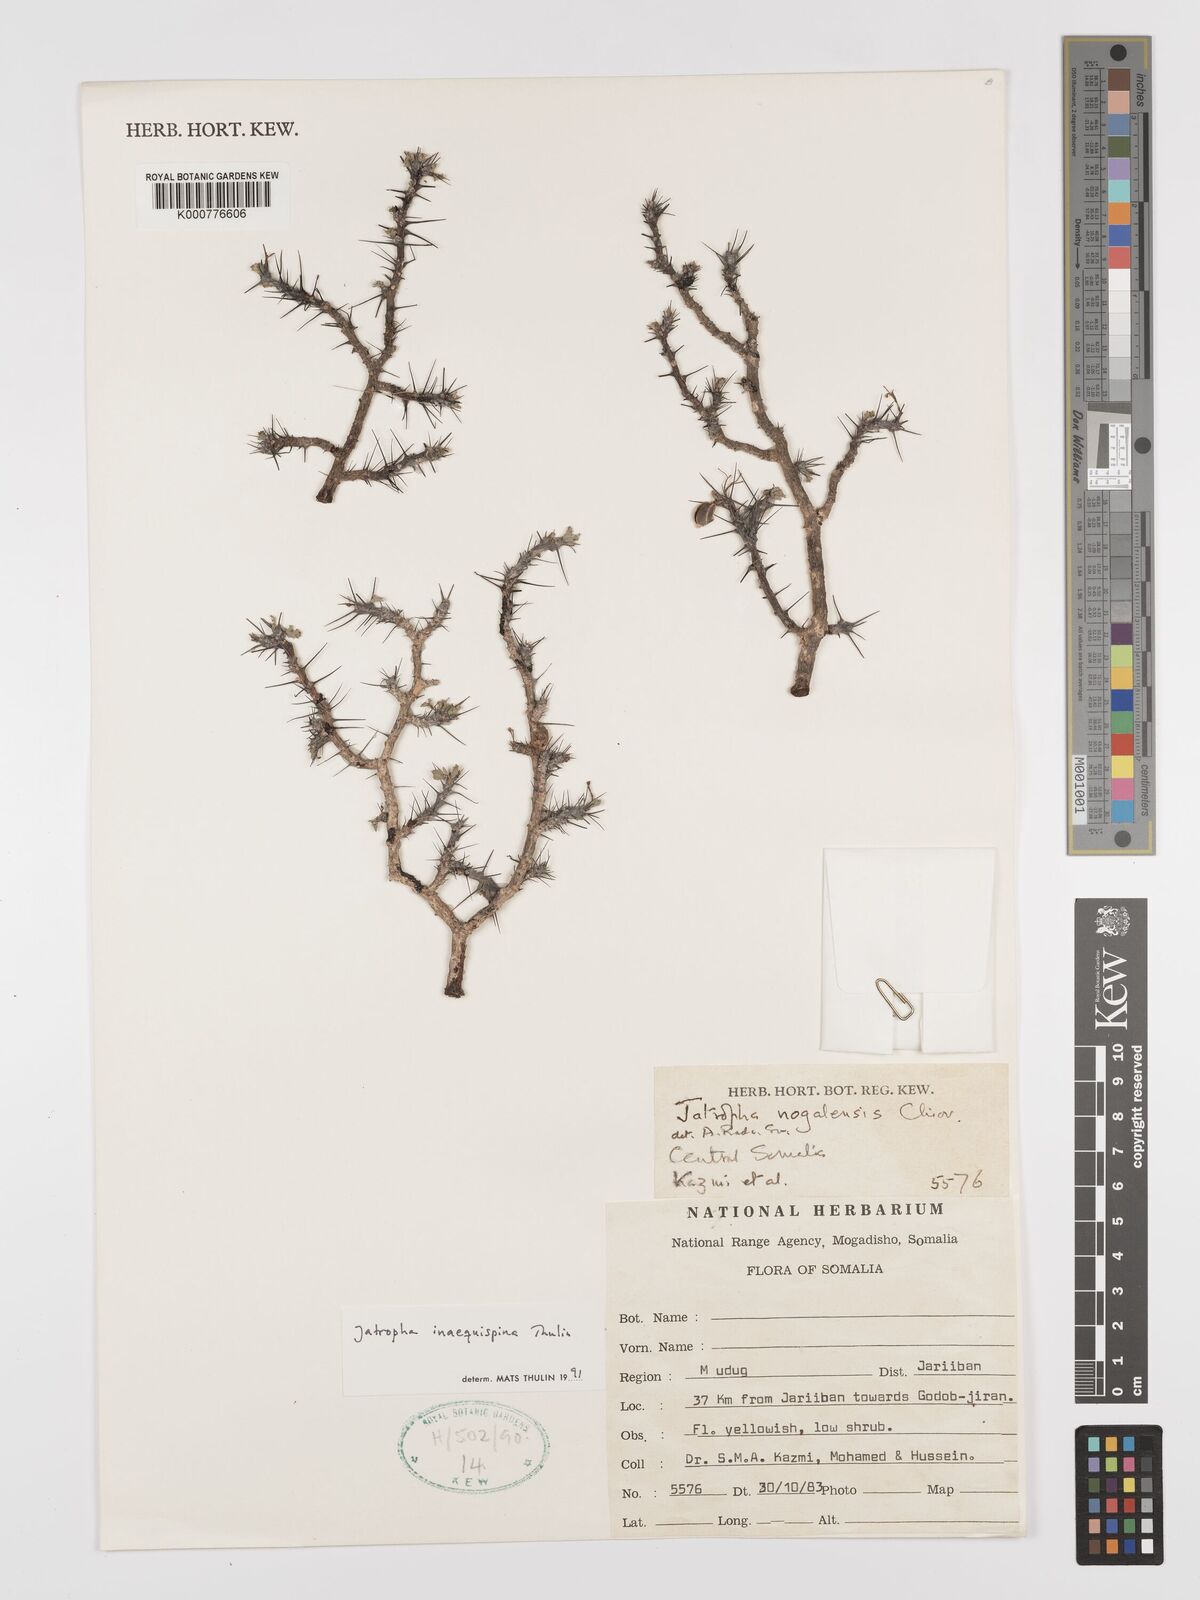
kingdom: Plantae
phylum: Tracheophyta
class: Magnoliopsida
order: Malpighiales
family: Euphorbiaceae
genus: Jatropha
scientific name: Jatropha inaequispina
